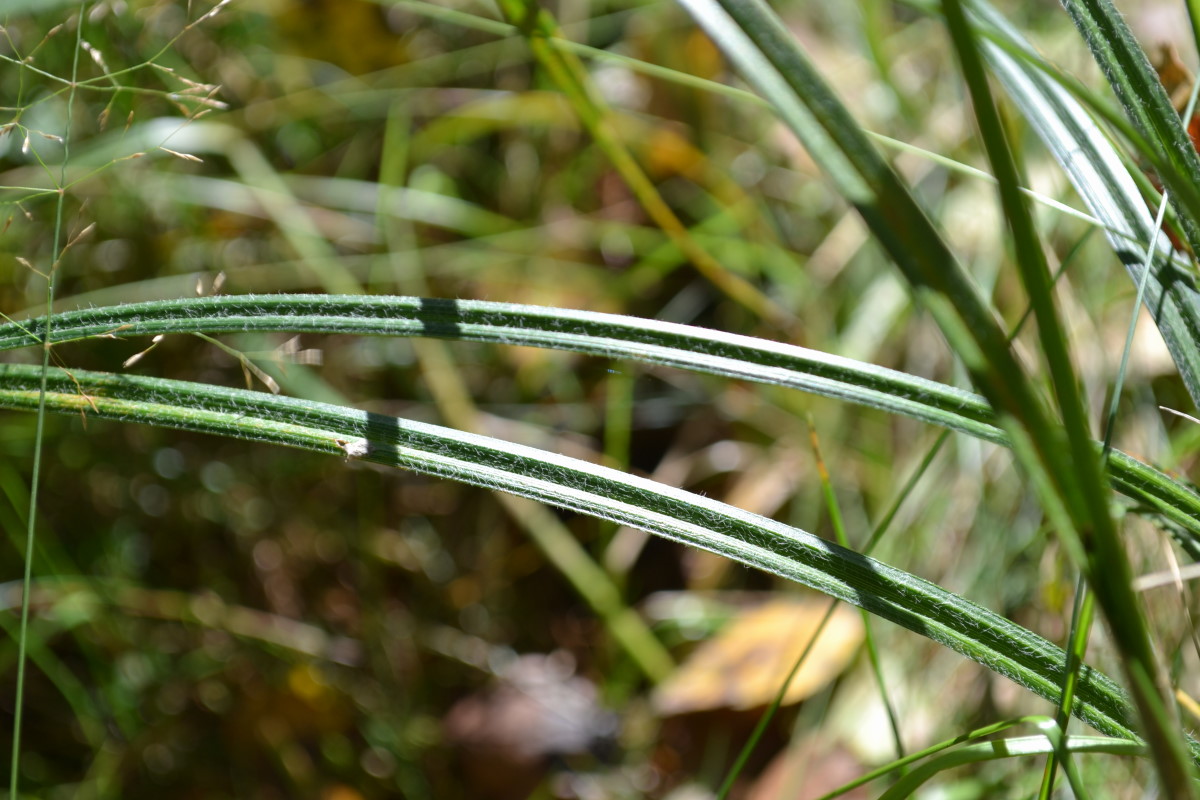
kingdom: Plantae
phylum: Tracheophyta
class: Liliopsida
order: Poales
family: Cyperaceae
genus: Carex
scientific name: Carex hirta
